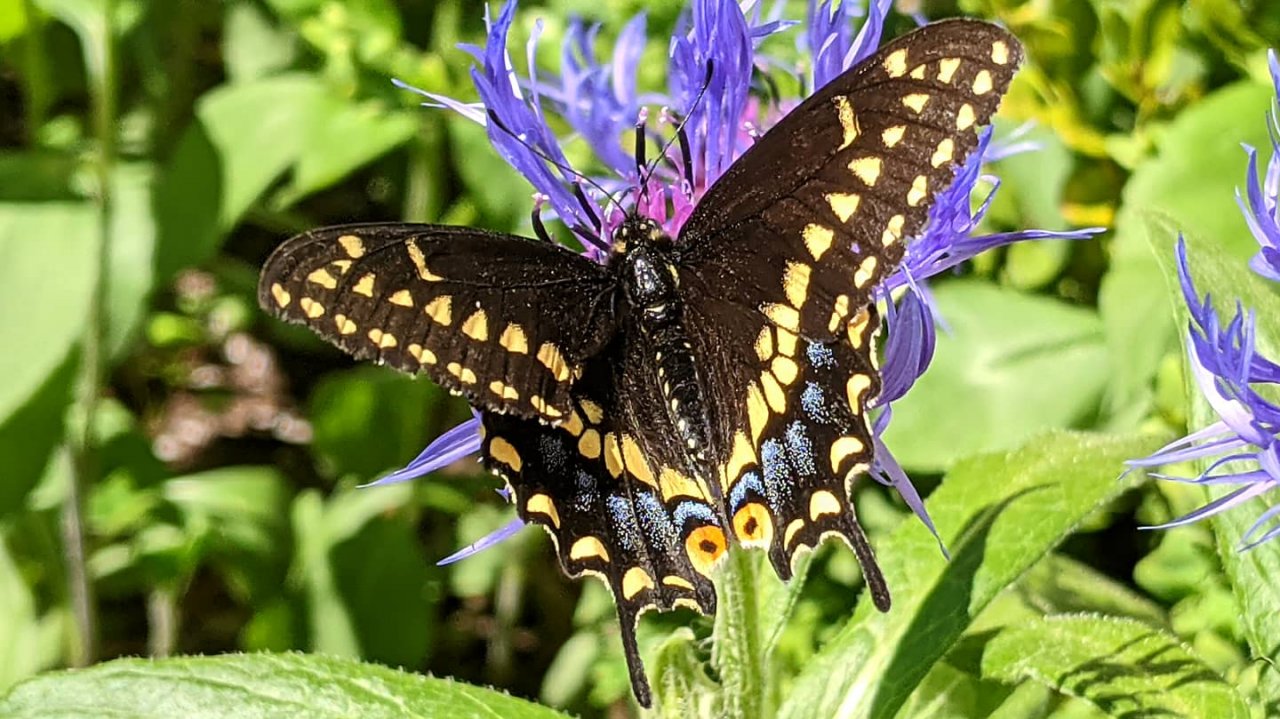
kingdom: Animalia
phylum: Arthropoda
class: Insecta
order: Lepidoptera
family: Papilionidae
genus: Papilio
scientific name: Papilio polyxenes
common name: Black Swallowtail
